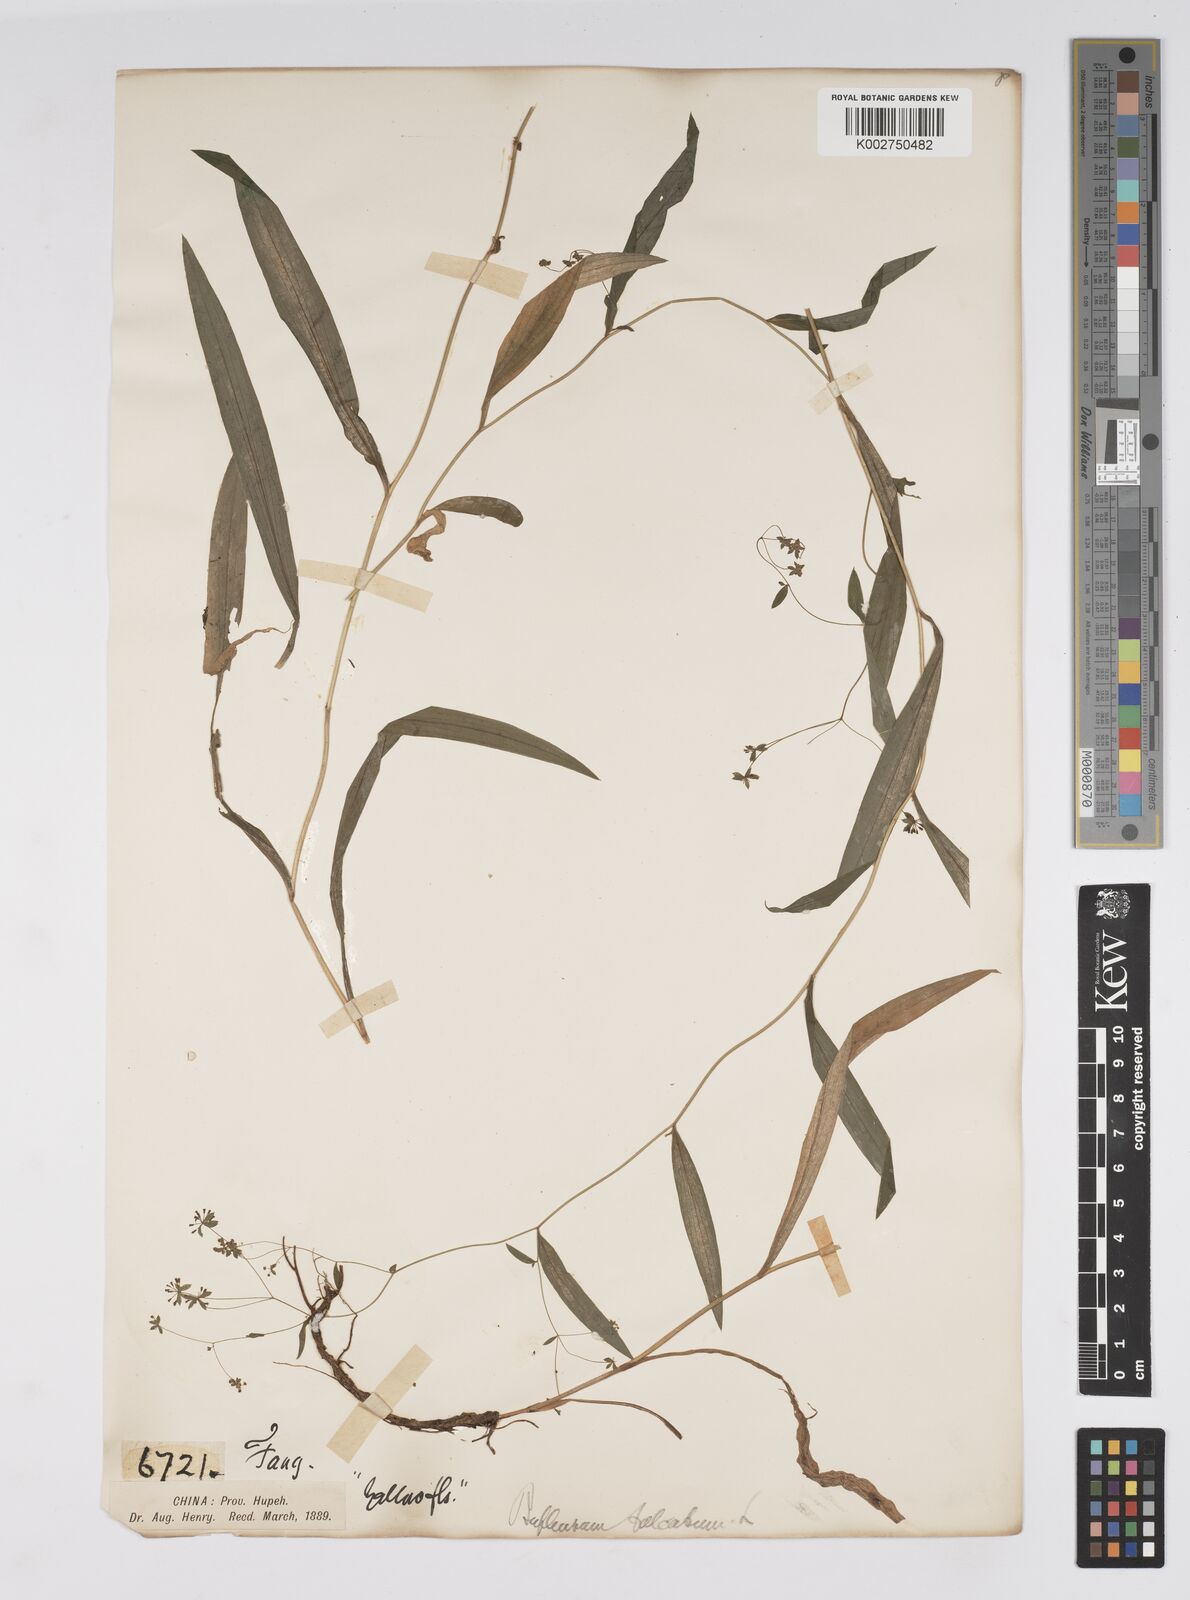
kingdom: Plantae
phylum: Tracheophyta
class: Magnoliopsida
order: Apiales
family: Apiaceae
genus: Bupleurum
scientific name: Bupleurum krylovianum
